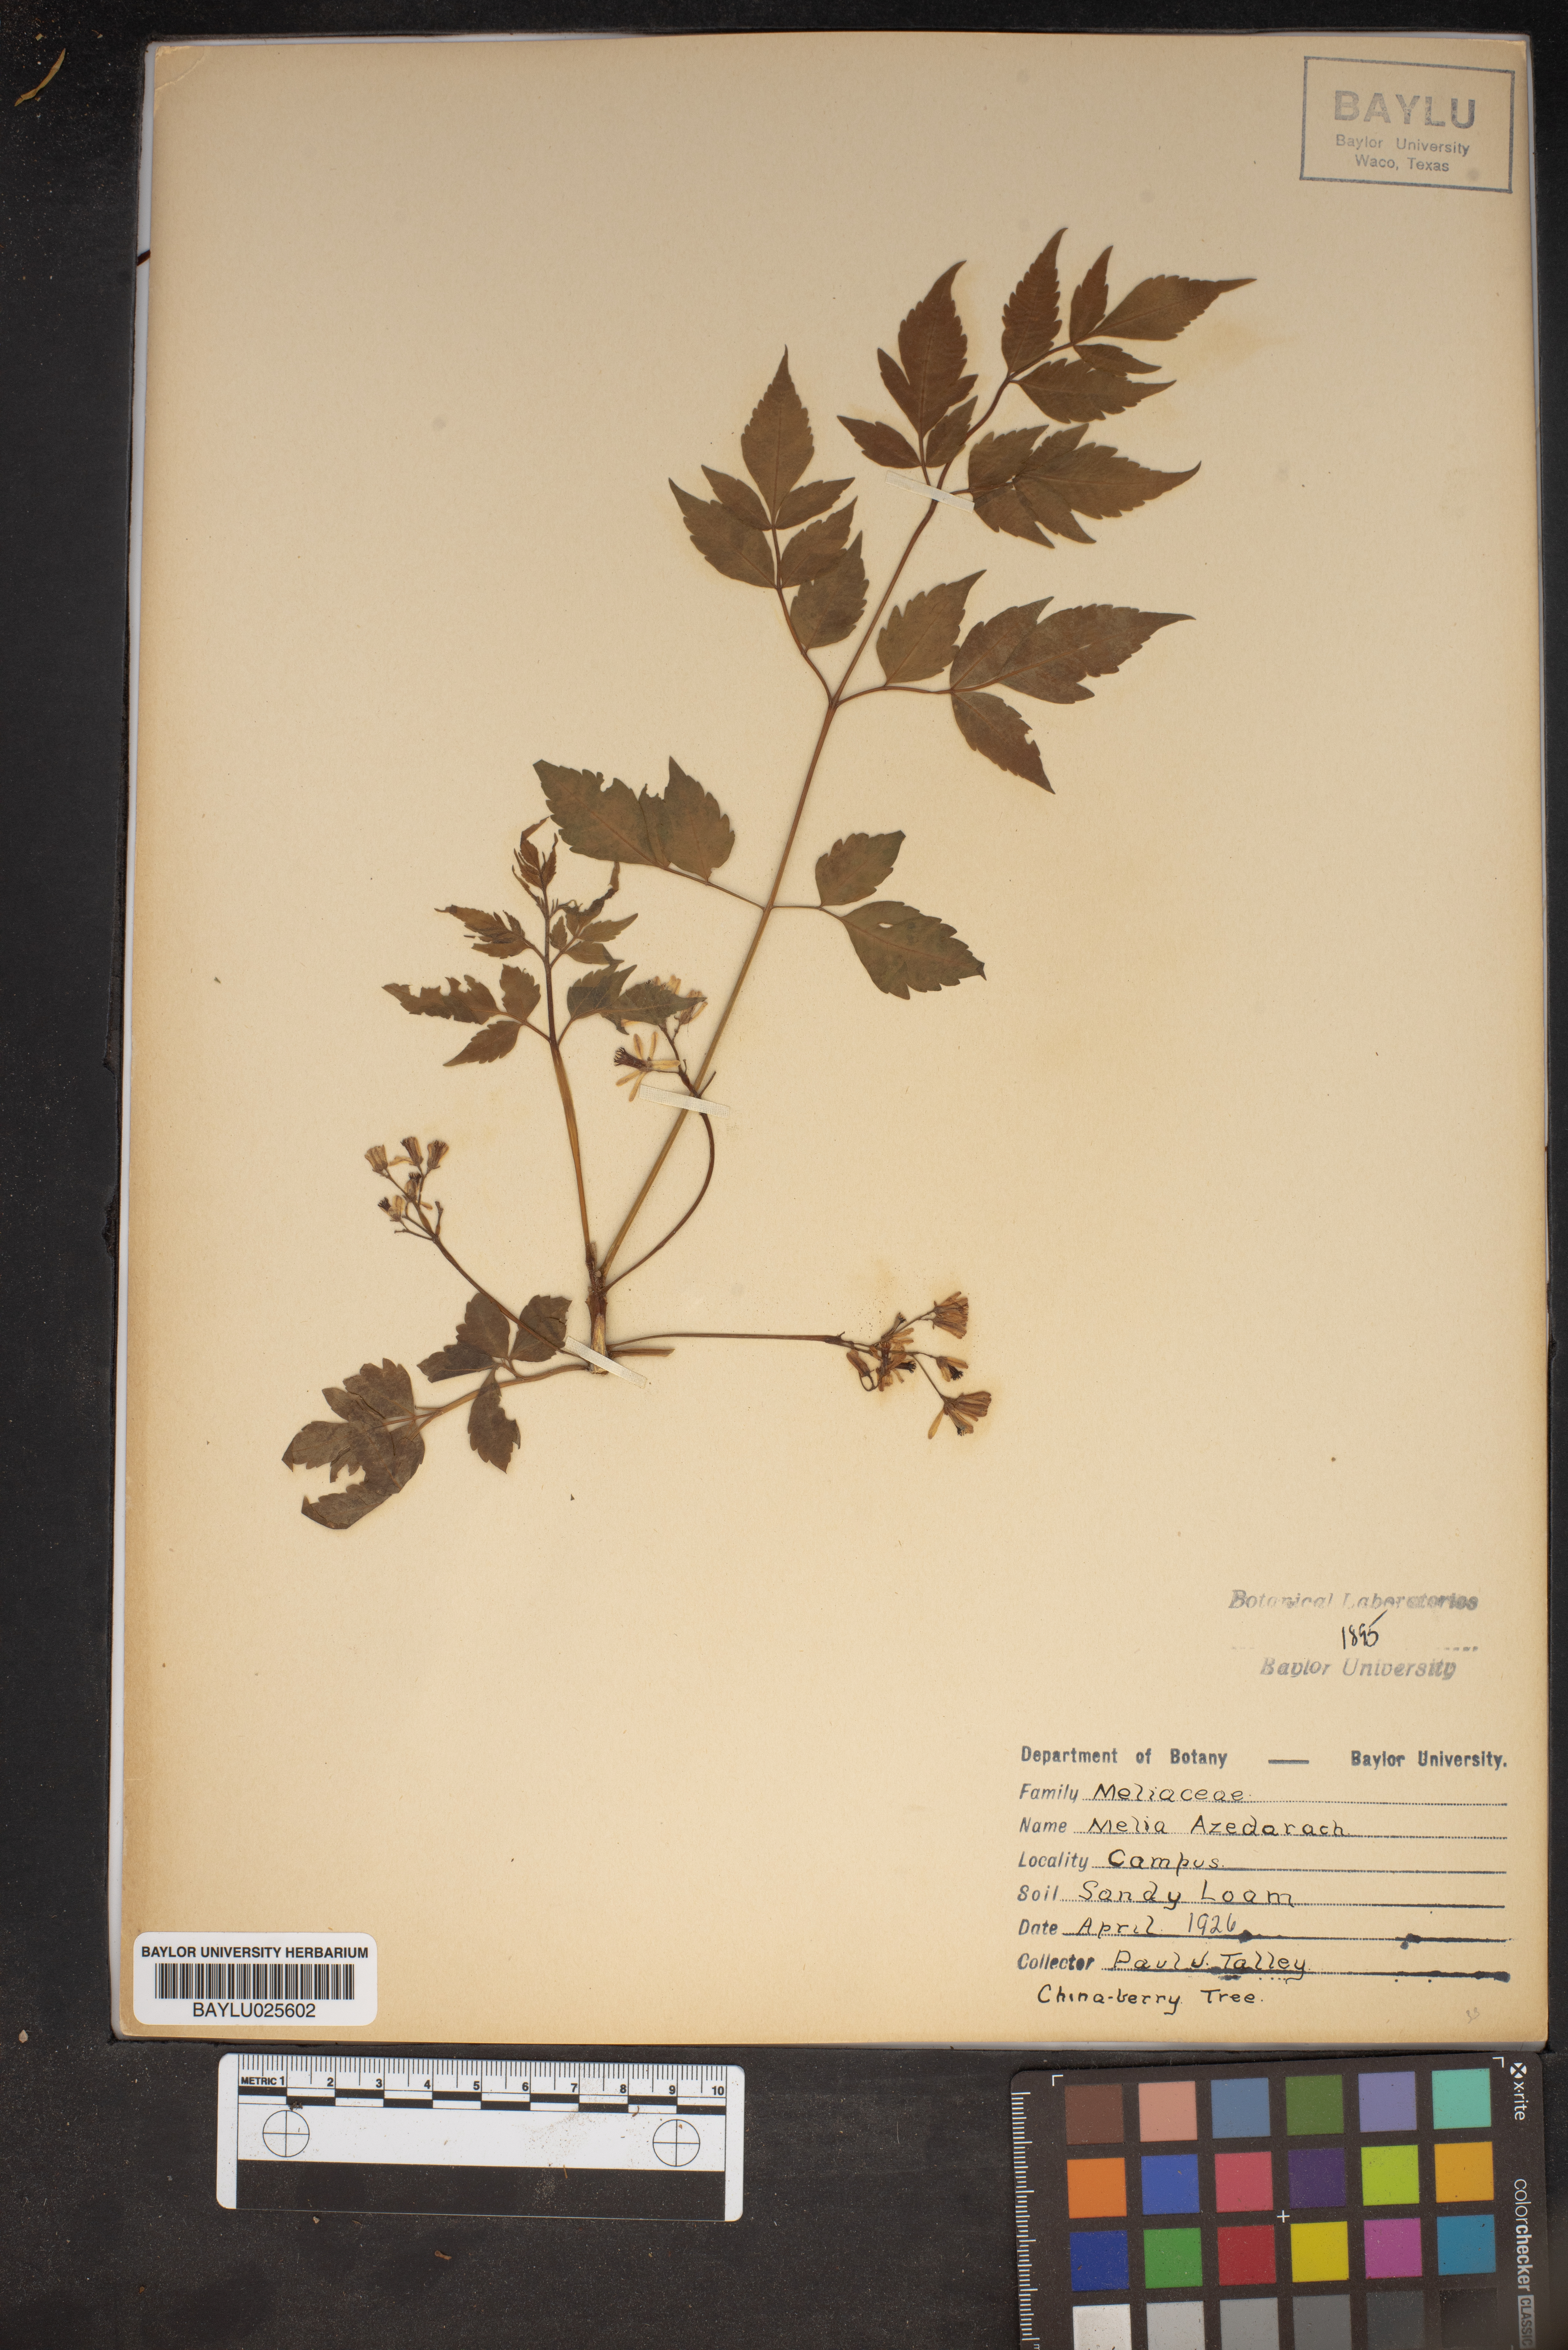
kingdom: Plantae
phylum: Tracheophyta
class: Magnoliopsida
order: Sapindales
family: Meliaceae
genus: Melia
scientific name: Melia azedarach
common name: Chinaberrytree
